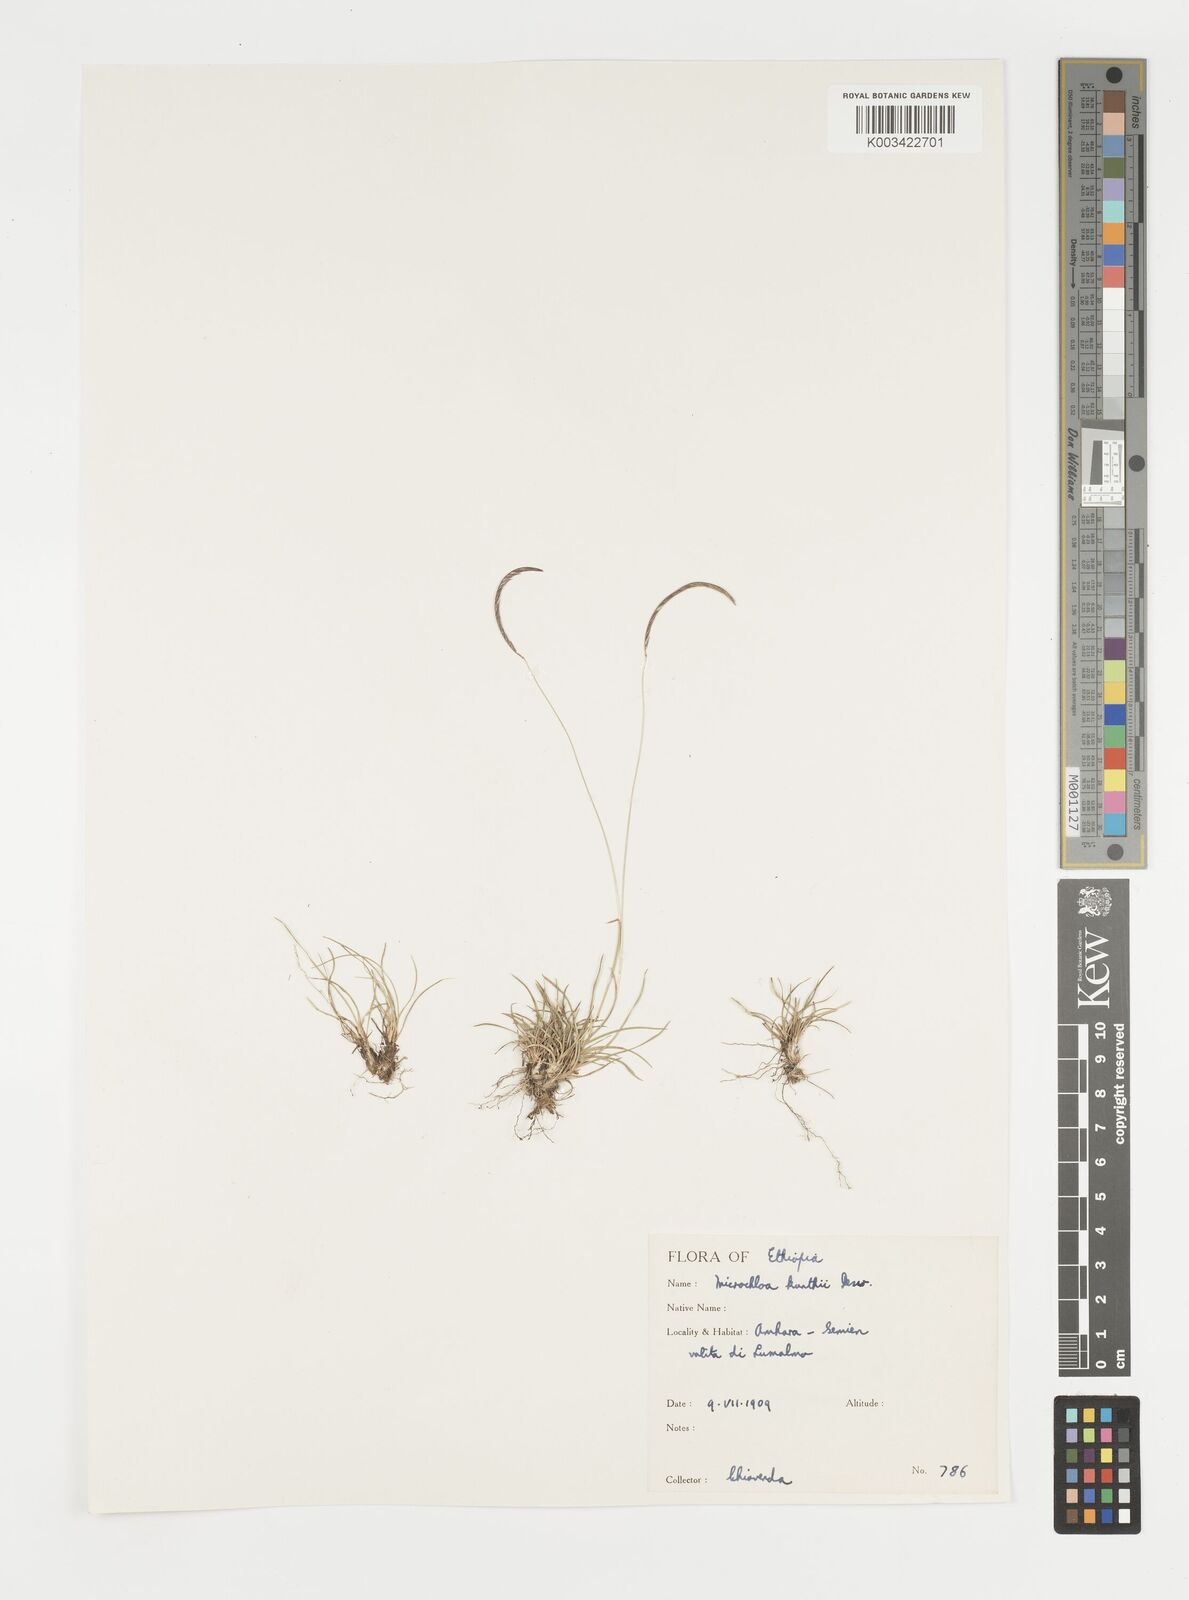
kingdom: Plantae
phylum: Tracheophyta
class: Liliopsida
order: Poales
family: Poaceae
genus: Microchloa
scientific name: Microchloa kunthii
